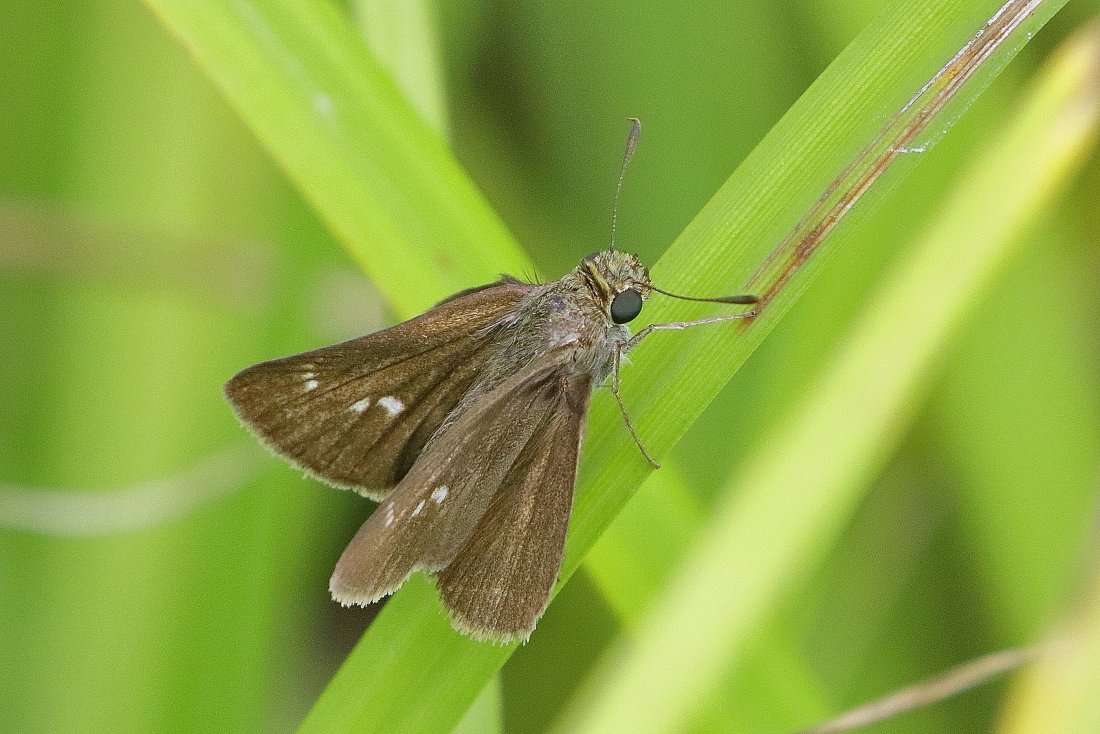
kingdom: Animalia
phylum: Arthropoda
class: Insecta
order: Lepidoptera
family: Hesperiidae
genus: Euphyes
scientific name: Euphyes vestris
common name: Dun Skipper
